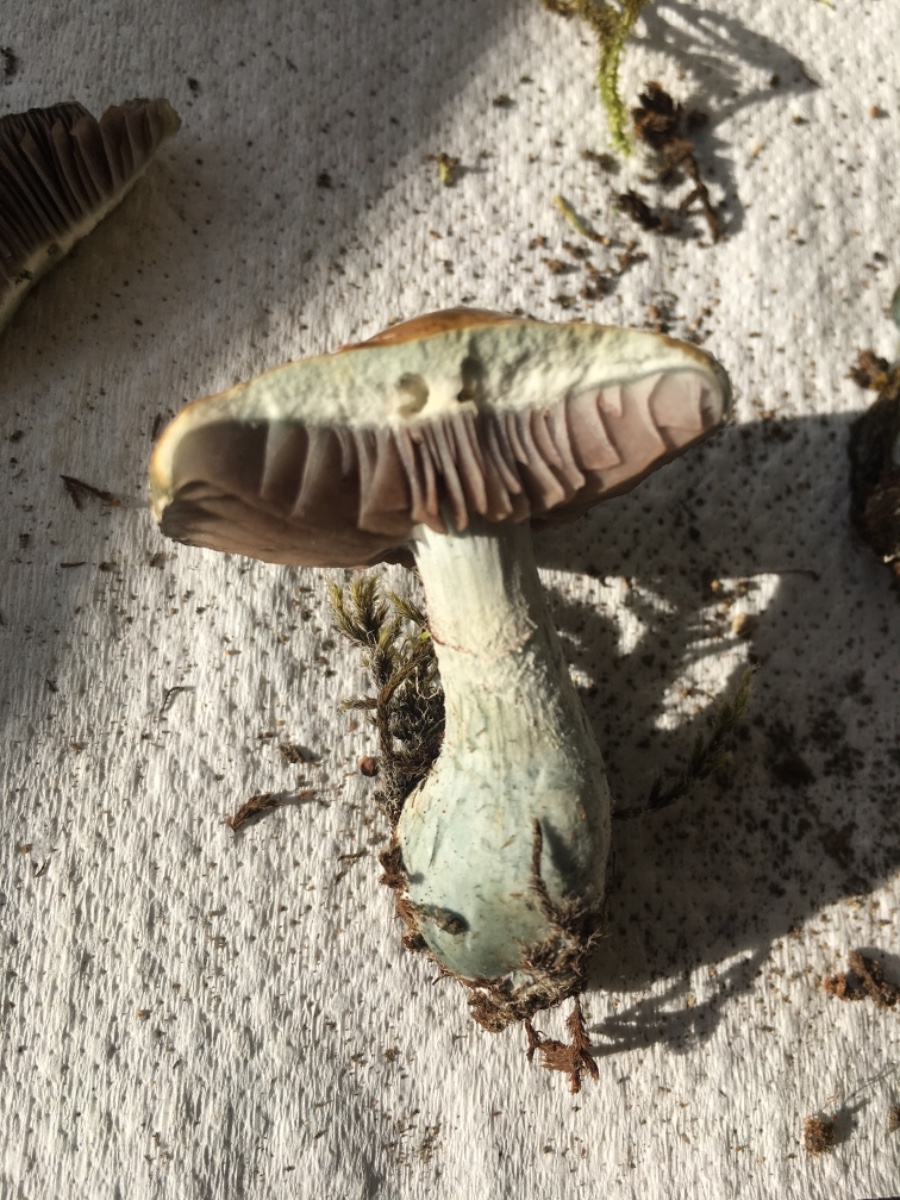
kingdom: Fungi
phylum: Basidiomycota
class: Agaricomycetes
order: Agaricales
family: Strophariaceae
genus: Stropharia
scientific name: Stropharia aeruginosa
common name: Verdigris roundhead
